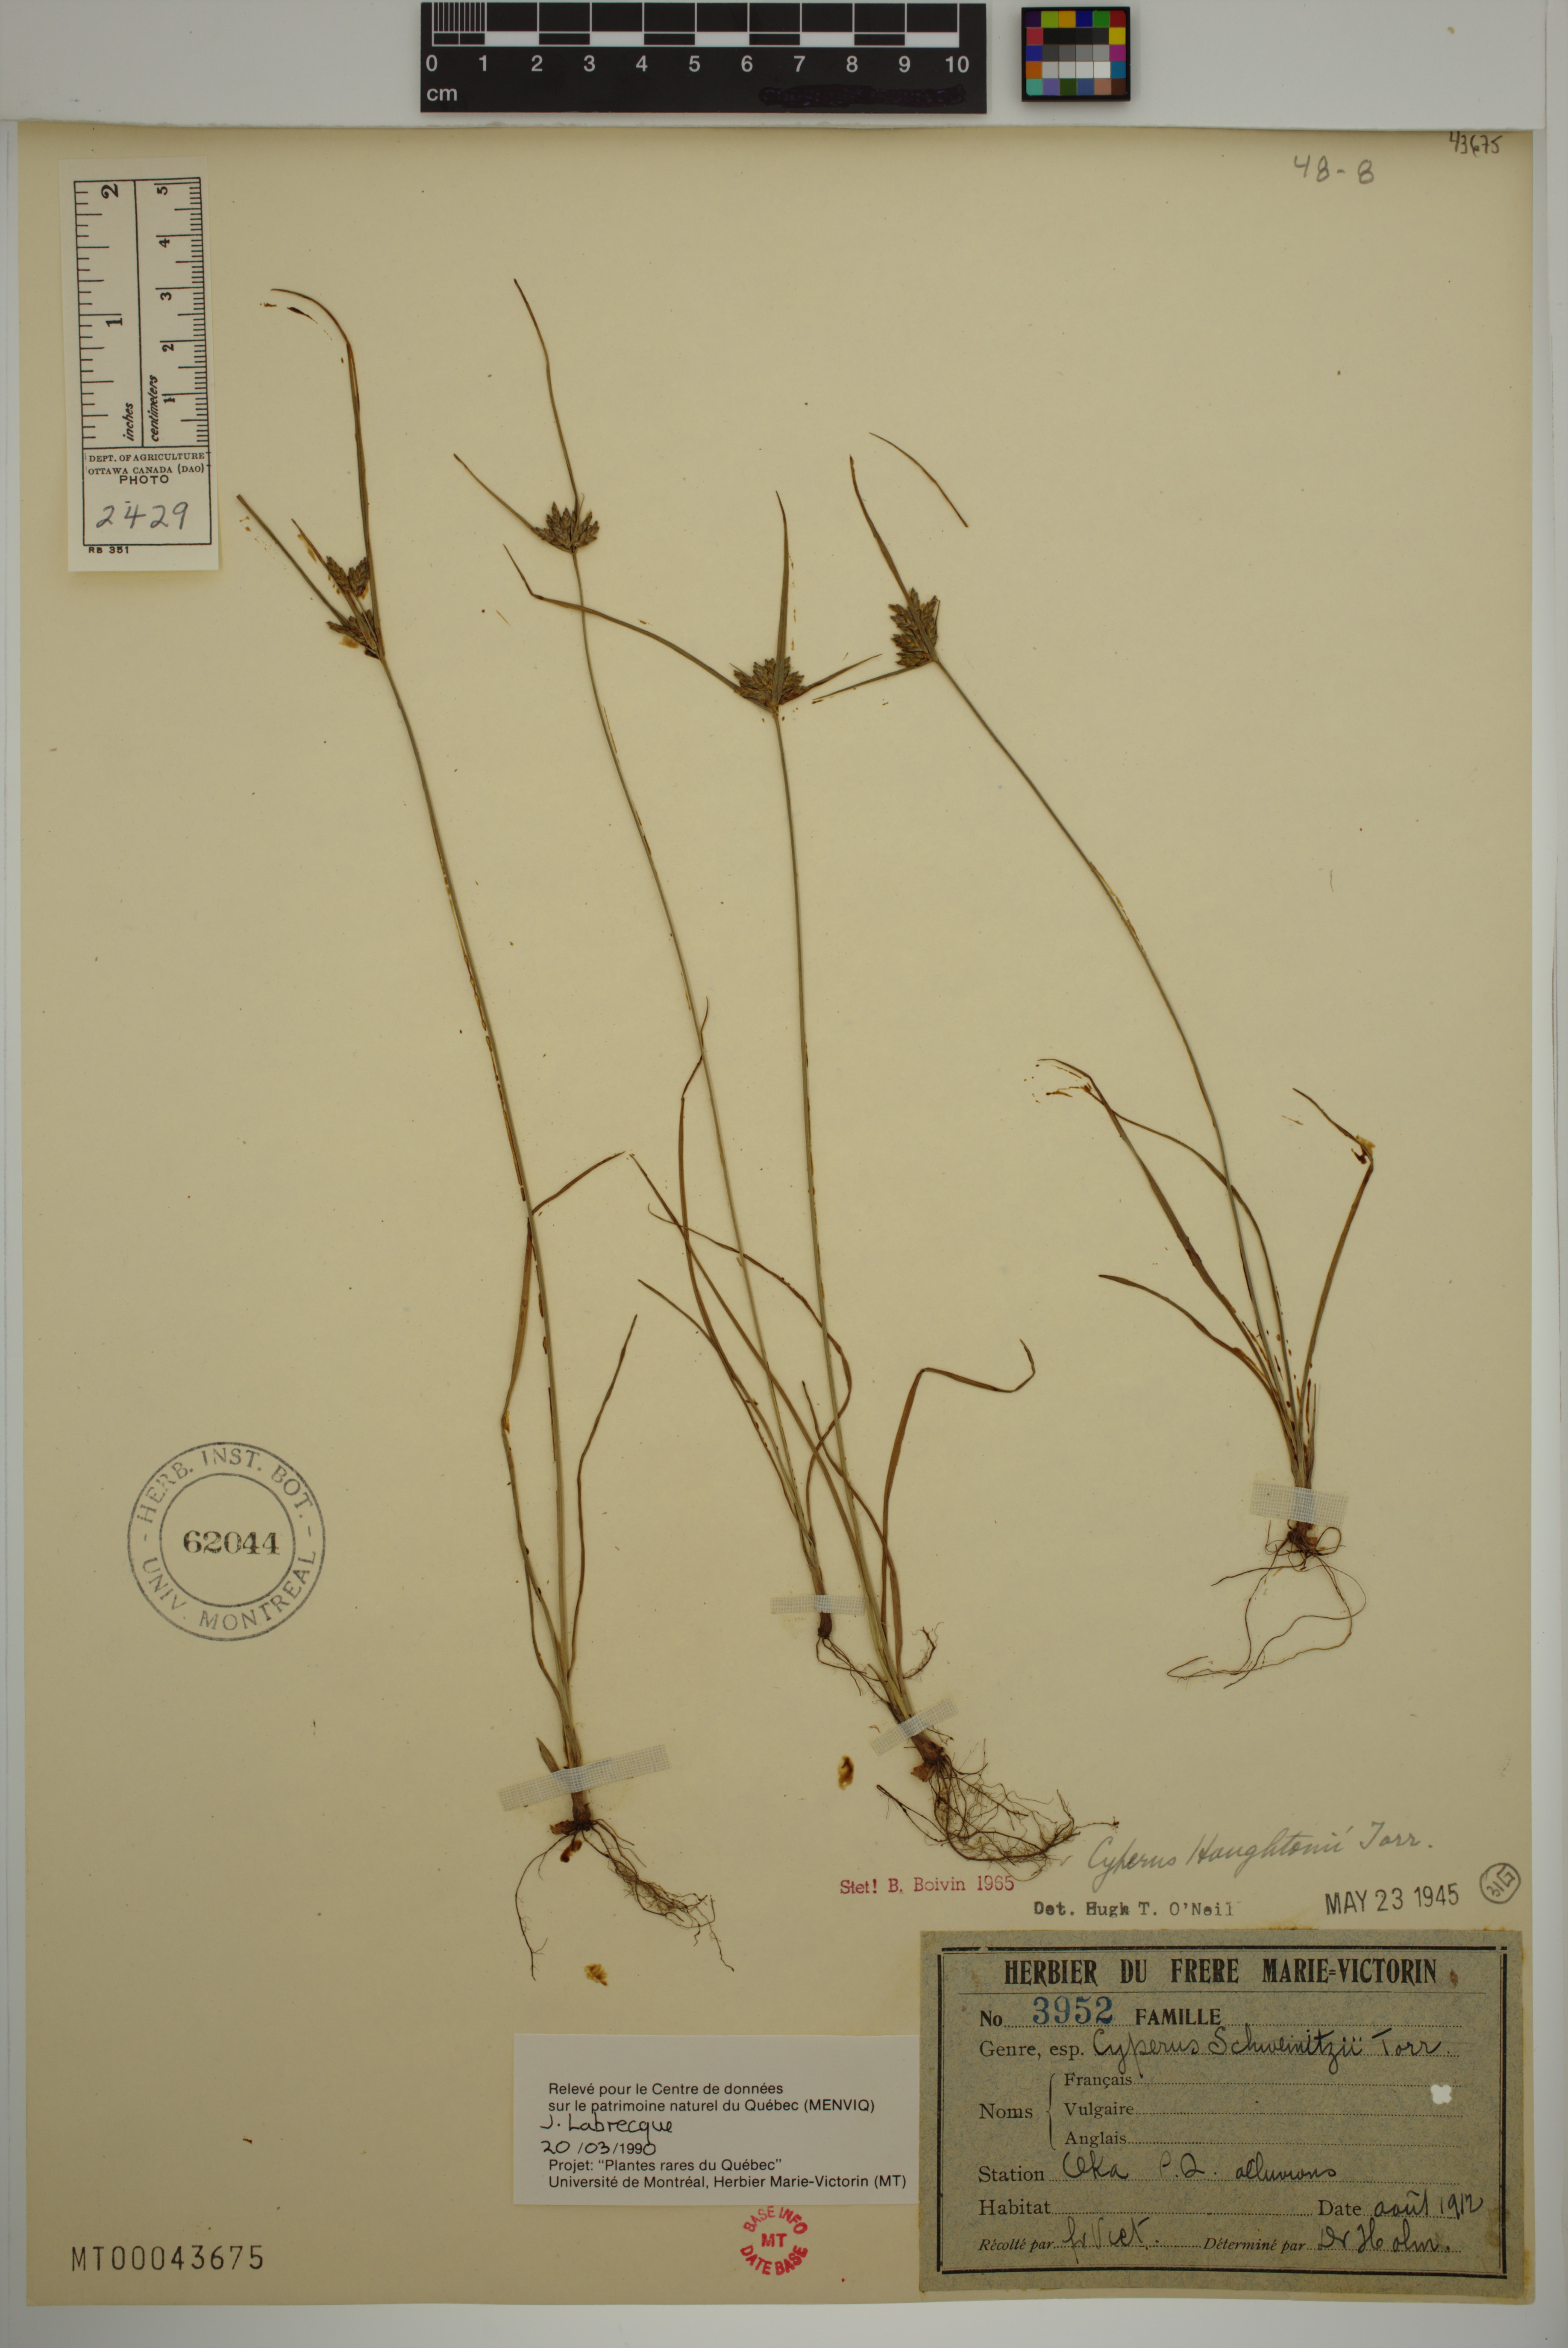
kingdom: Plantae
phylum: Tracheophyta
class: Liliopsida
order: Poales
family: Cyperaceae
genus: Cyperus
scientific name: Cyperus houghtonii
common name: Houghton's cyperus
